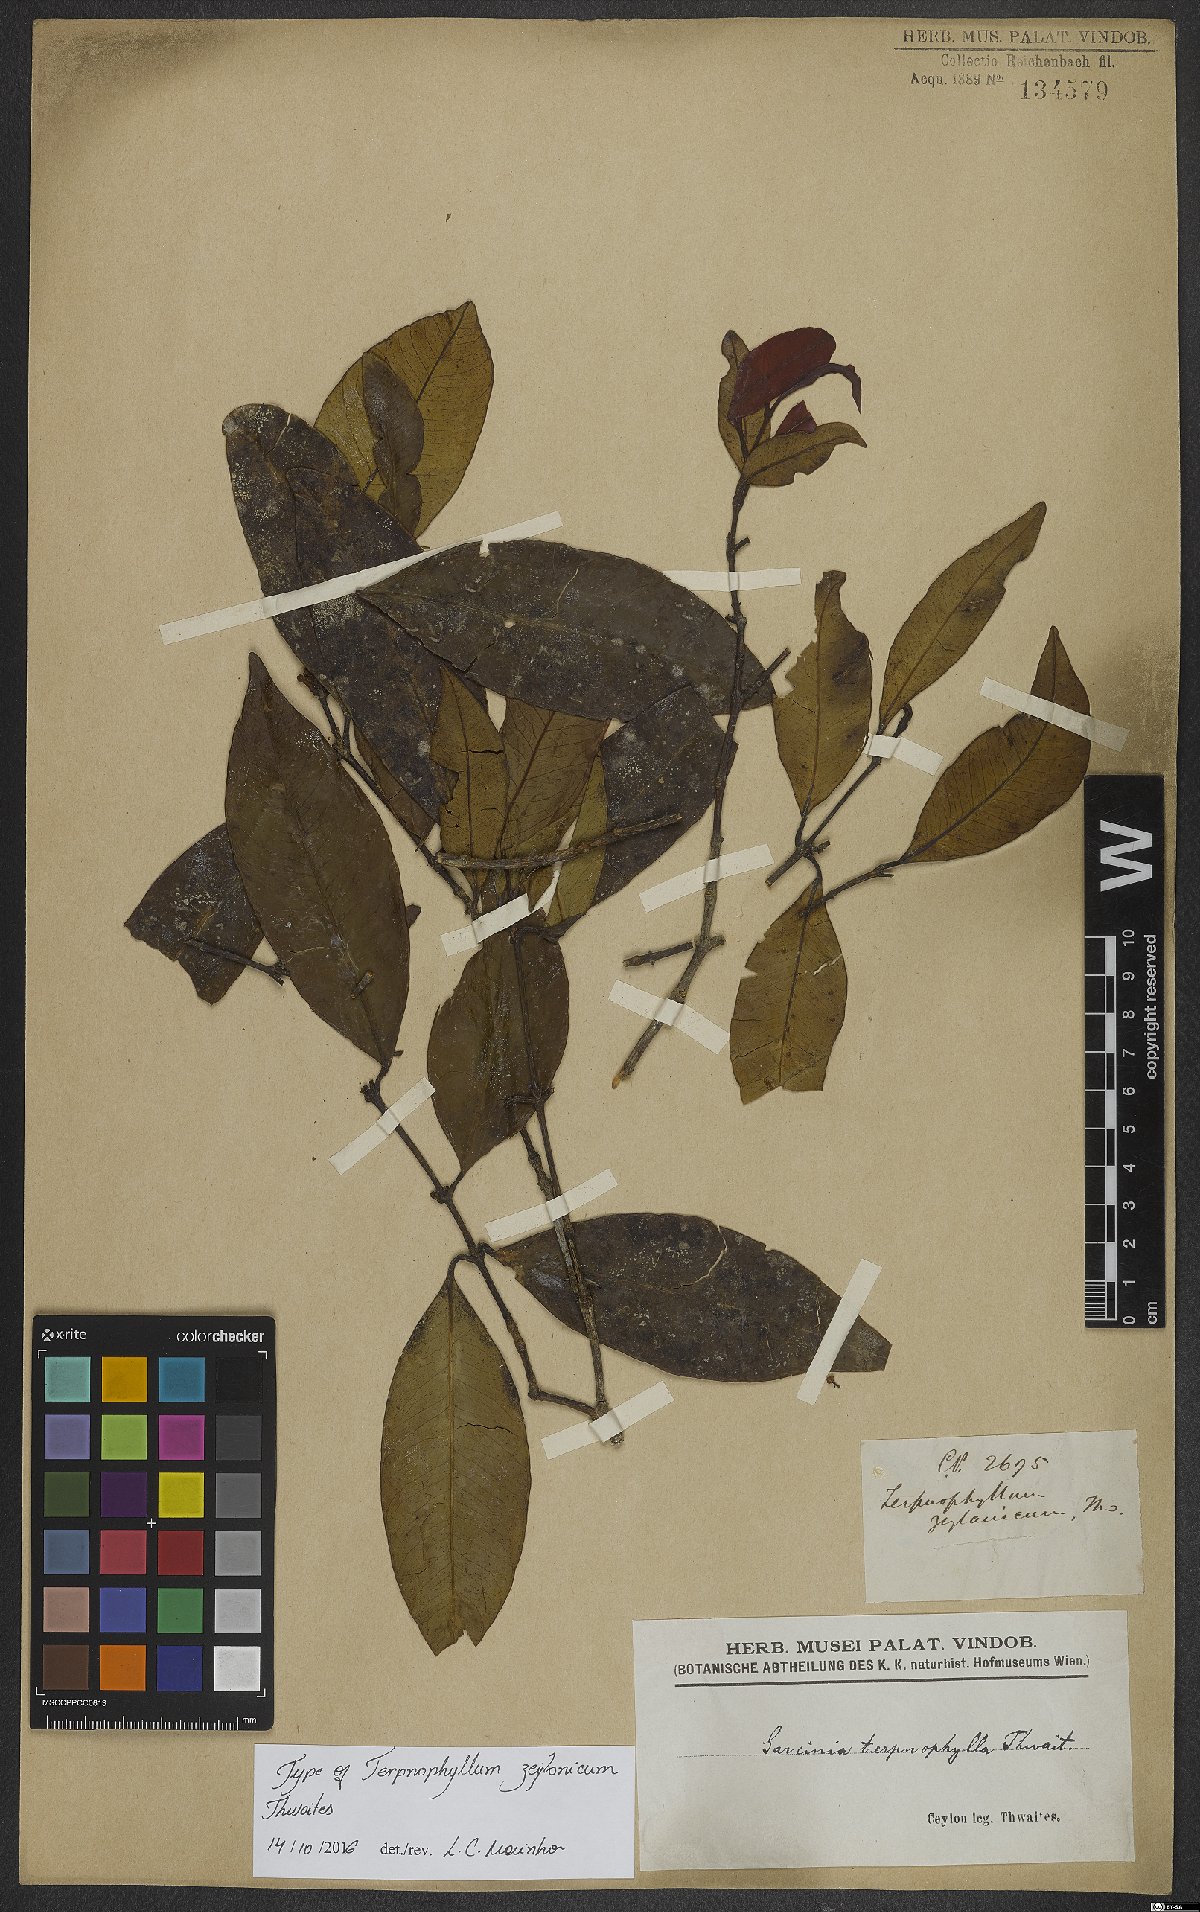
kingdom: Plantae
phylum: Tracheophyta
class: Magnoliopsida
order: Malpighiales
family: Clusiaceae
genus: Garcinia
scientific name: Garcinia terpnophylla
